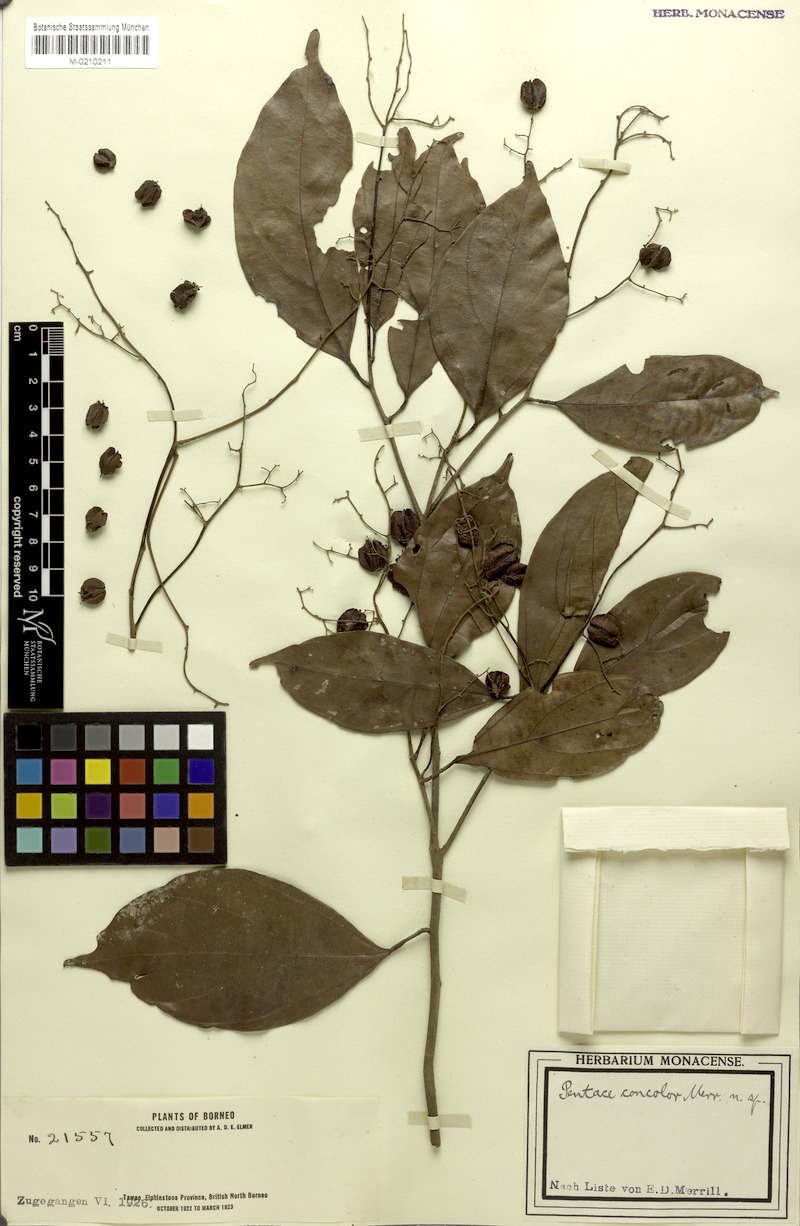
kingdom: Plantae
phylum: Tracheophyta
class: Magnoliopsida
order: Malvales
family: Malvaceae
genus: Pentace
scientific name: Pentace discolor
